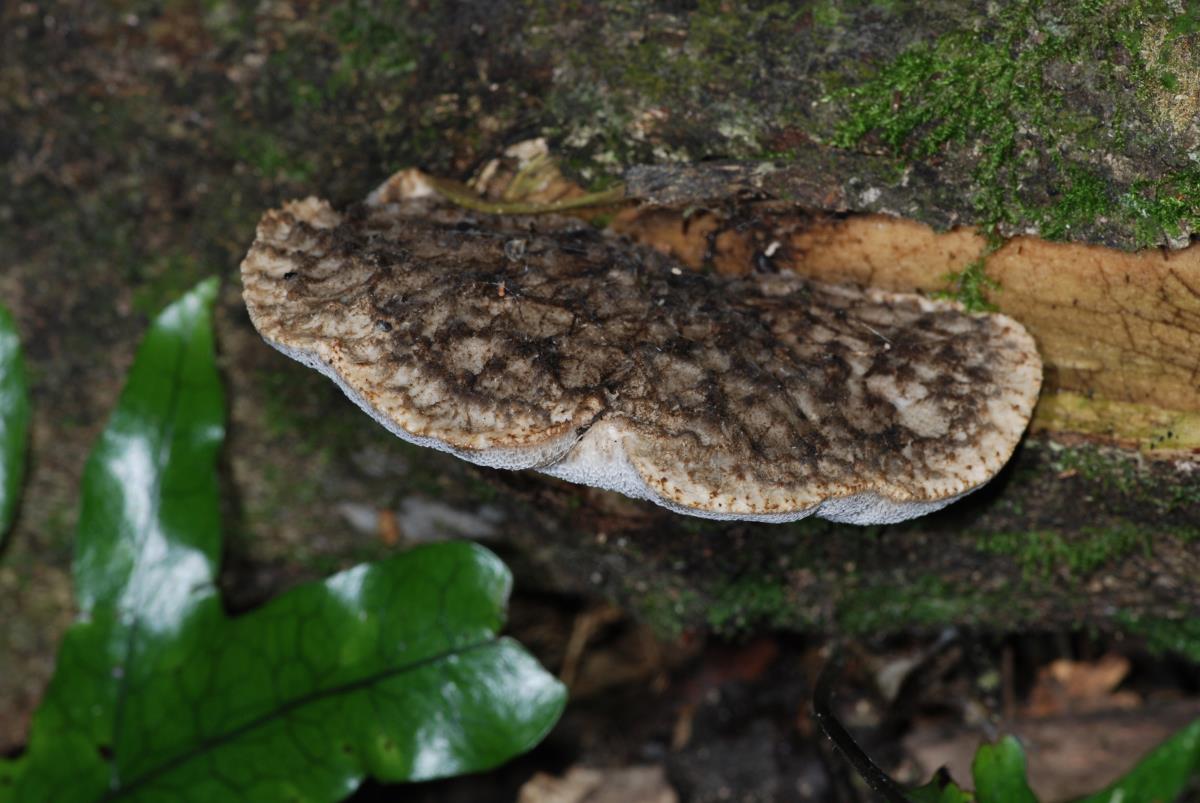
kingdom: Fungi
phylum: Basidiomycota
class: Agaricomycetes
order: Polyporales
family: Polyporaceae
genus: Bresadolia
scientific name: Bresadolia
